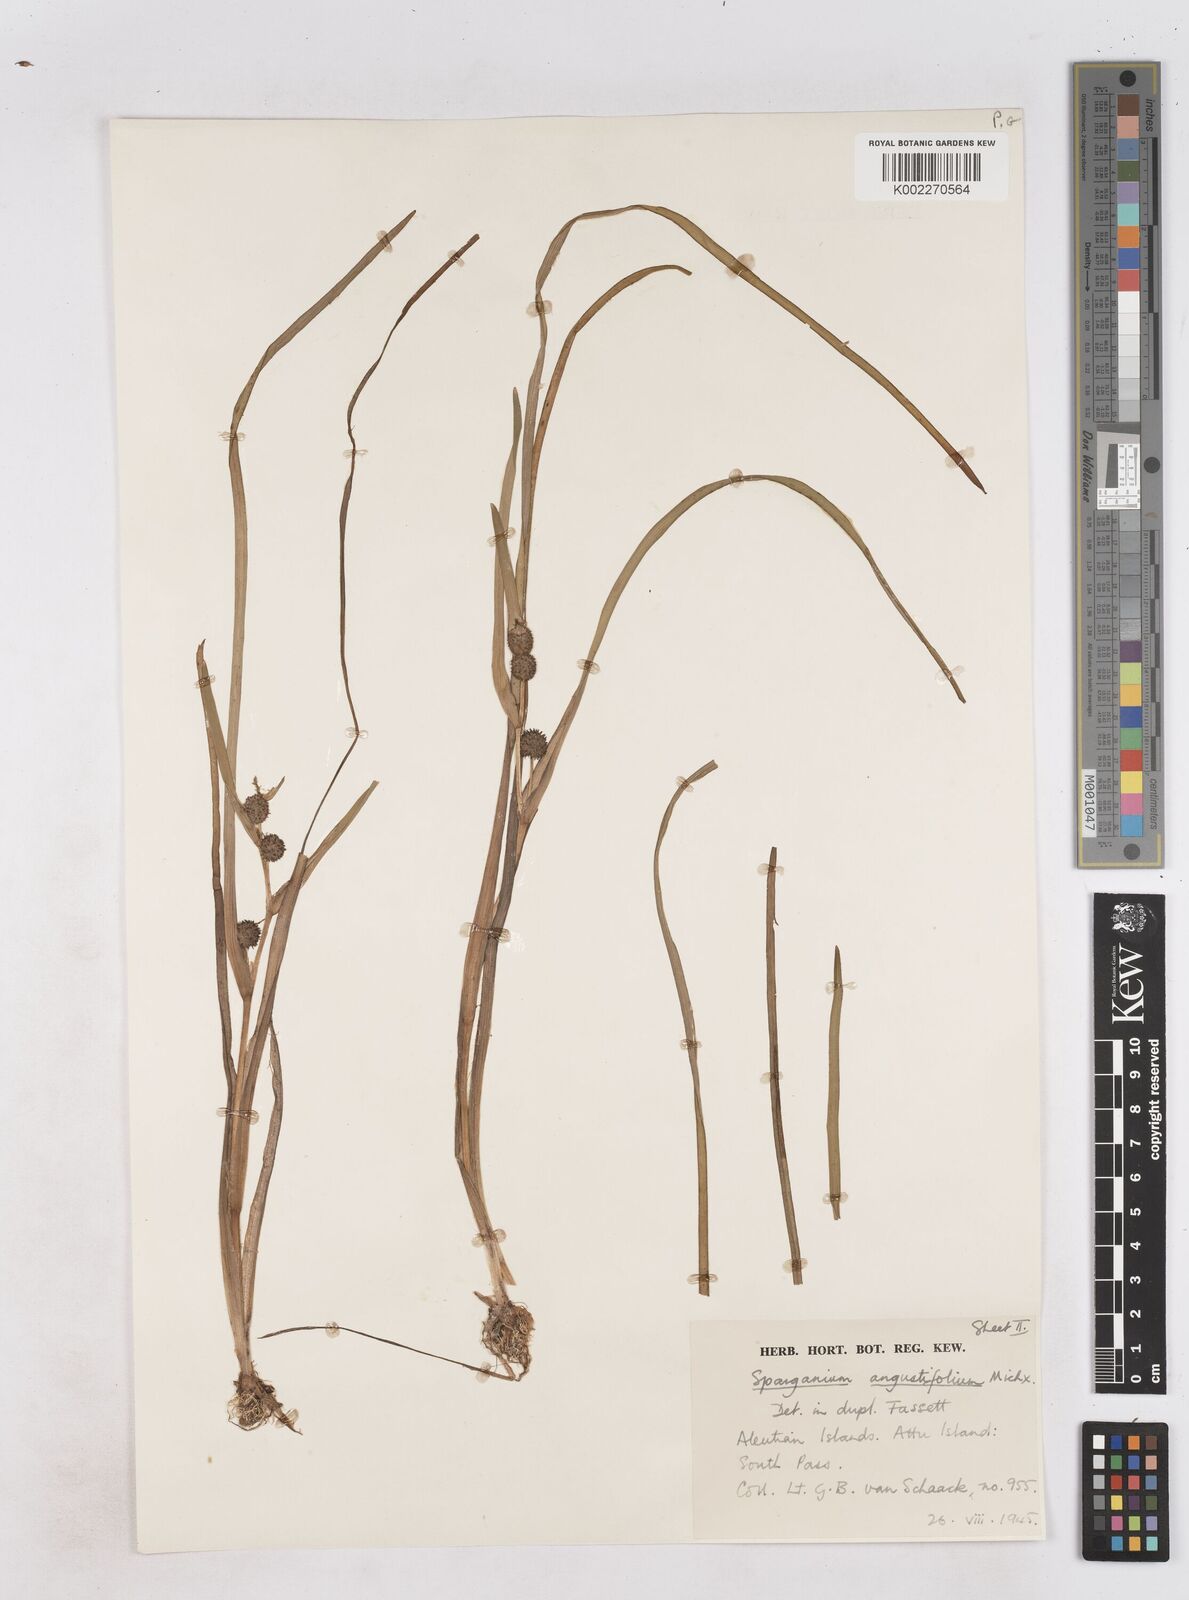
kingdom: Plantae
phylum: Tracheophyta
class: Liliopsida
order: Poales
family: Typhaceae
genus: Sparganium
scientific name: Sparganium angustifolium
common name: Floating bur-reed
